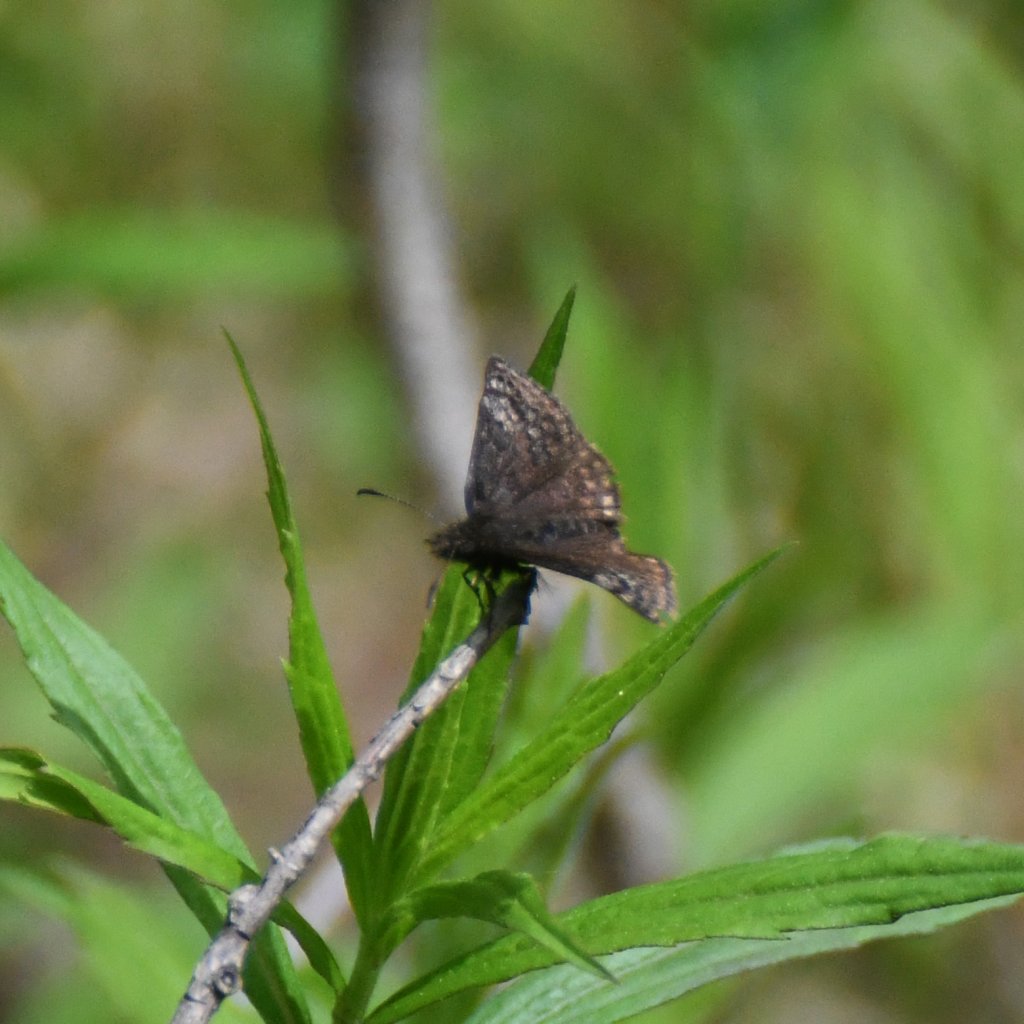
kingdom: Animalia
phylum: Arthropoda
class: Insecta
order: Lepidoptera
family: Hesperiidae
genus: Erynnis
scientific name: Erynnis icelus
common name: Dreamy Duskywing
